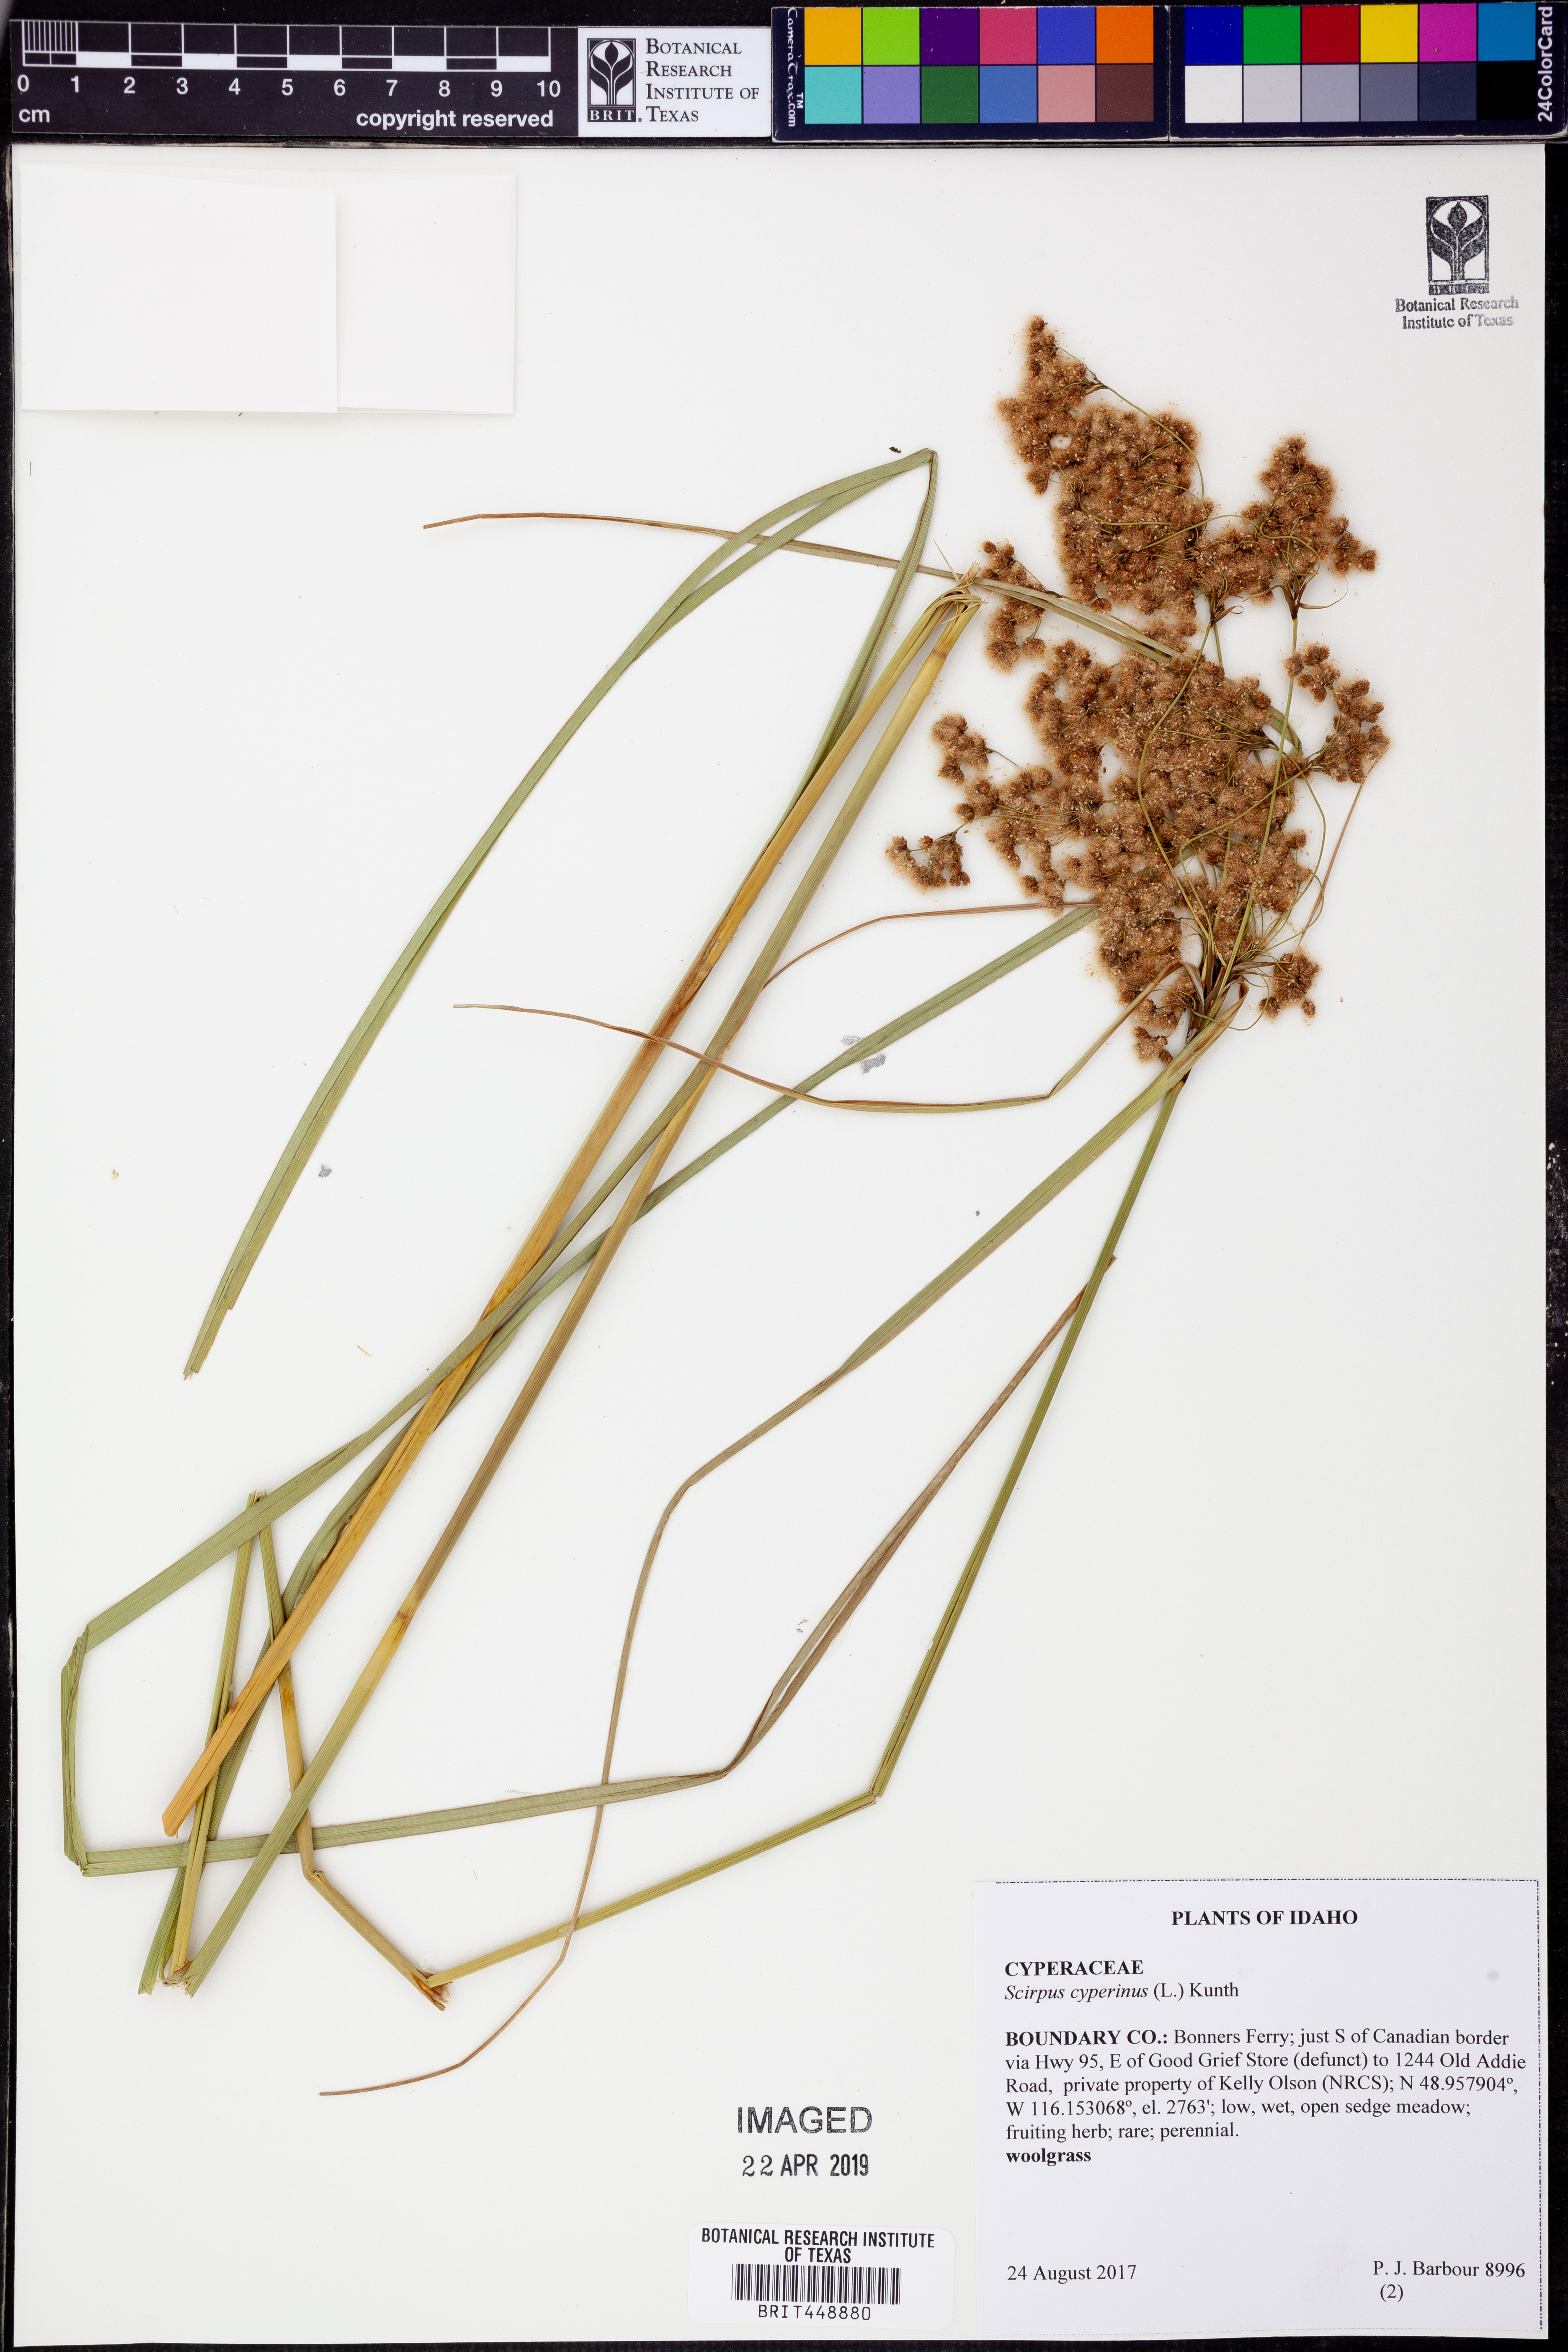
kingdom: Plantae
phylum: Tracheophyta
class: Liliopsida
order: Poales
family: Cyperaceae
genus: Scirpus
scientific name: Scirpus cyperinus
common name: Black-sheathed bulrush
